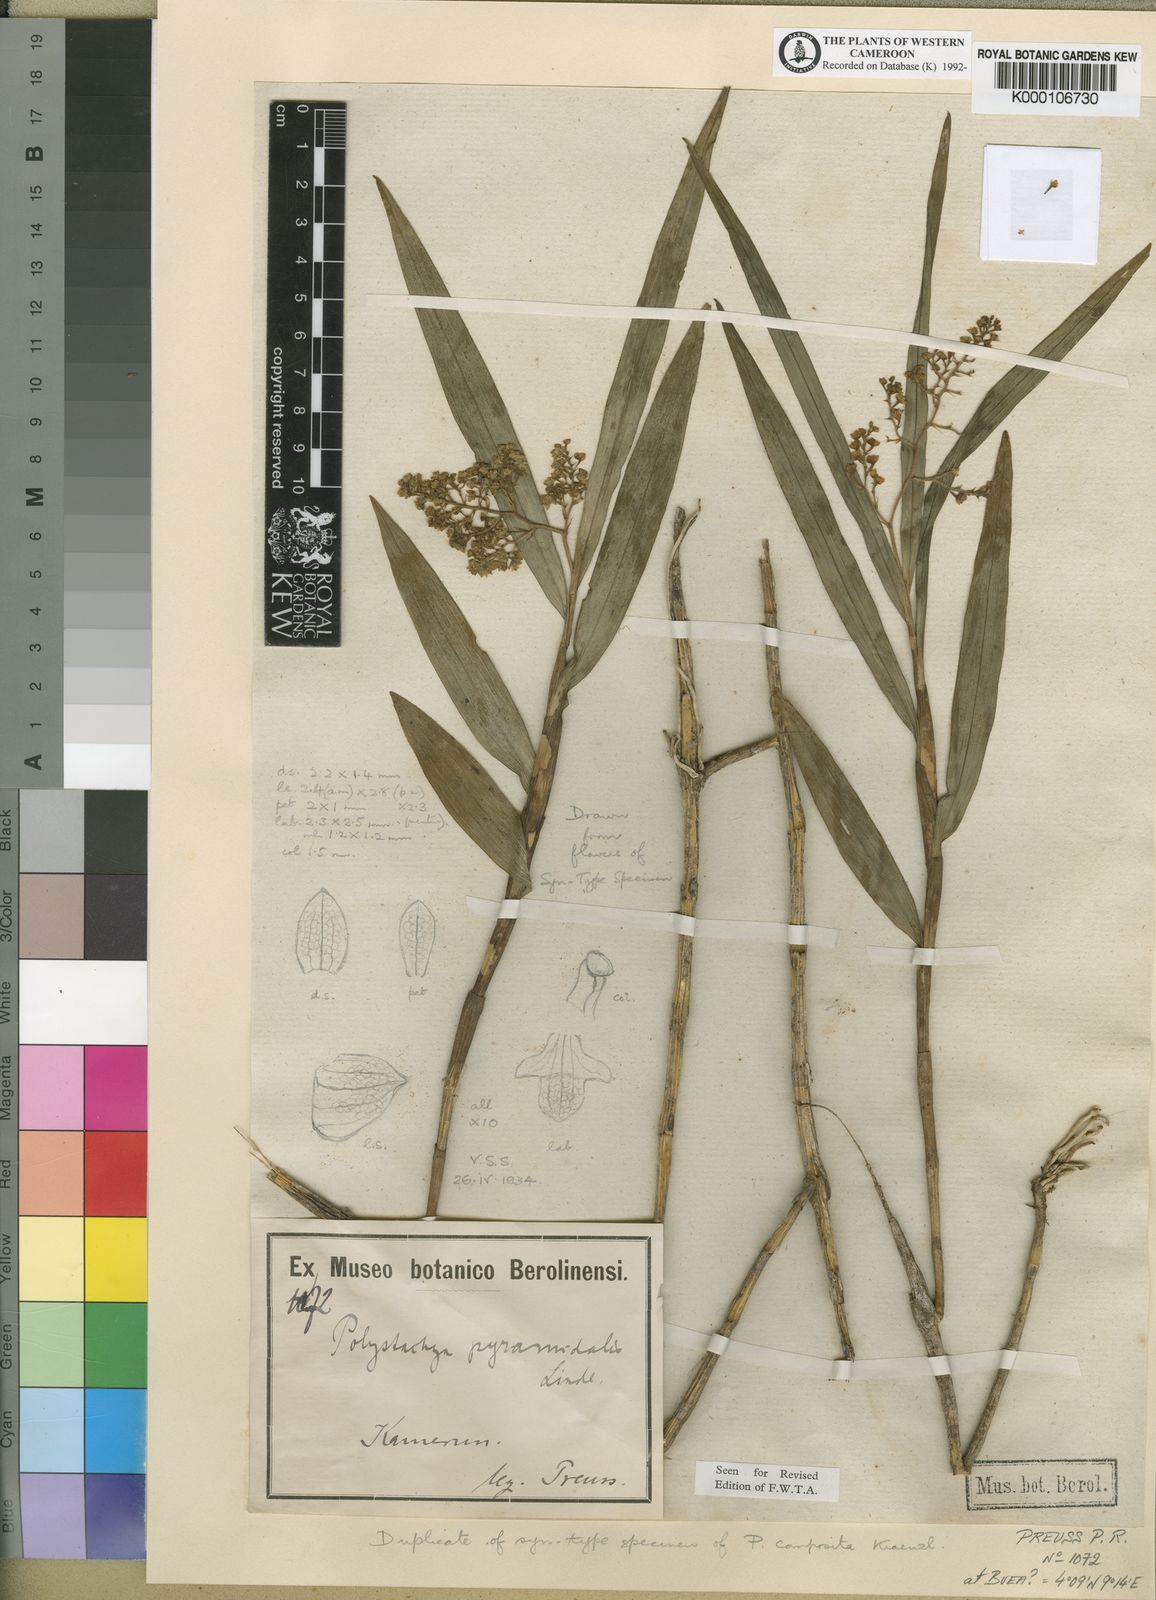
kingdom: Plantae
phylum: Tracheophyta
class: Liliopsida
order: Asparagales
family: Orchidaceae
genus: Polystachya
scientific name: Polystachya pyramidalis
